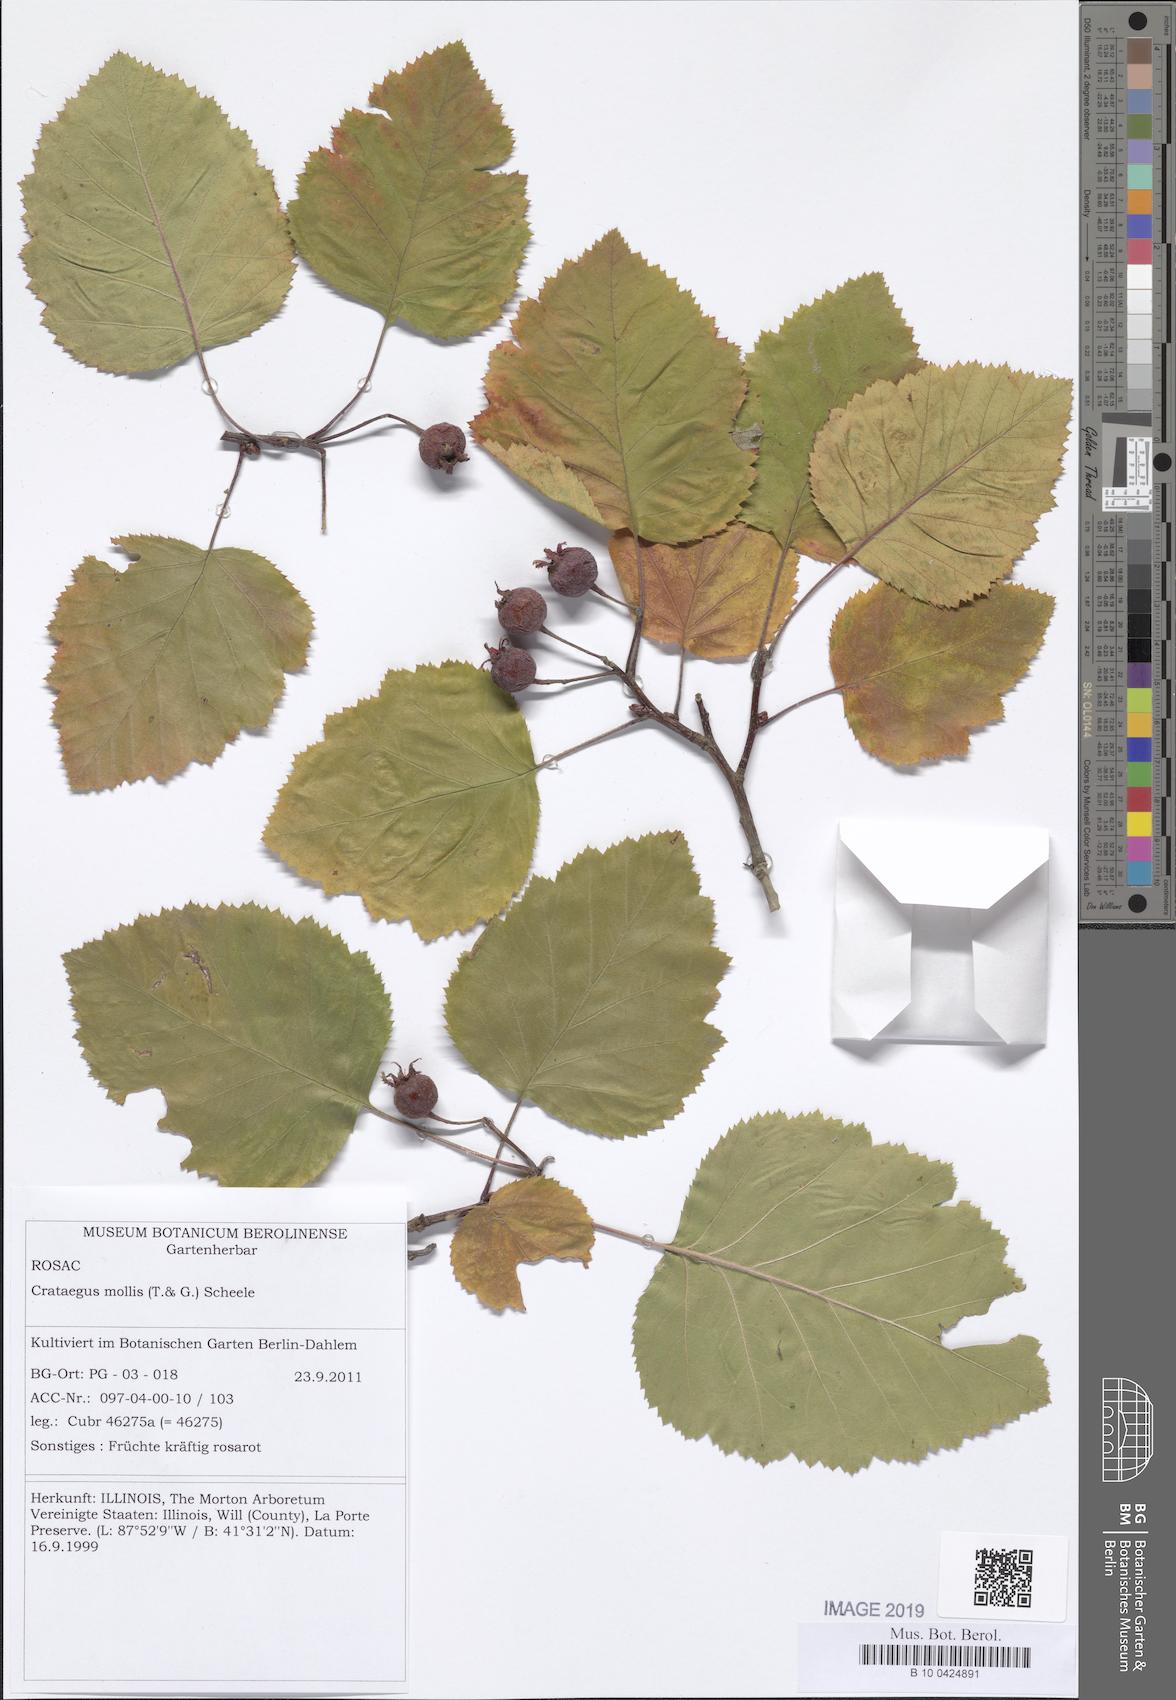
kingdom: Plantae
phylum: Tracheophyta
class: Magnoliopsida
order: Rosales
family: Rosaceae
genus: Crataegus
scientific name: Crataegus mollis
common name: Downy hawthorn
